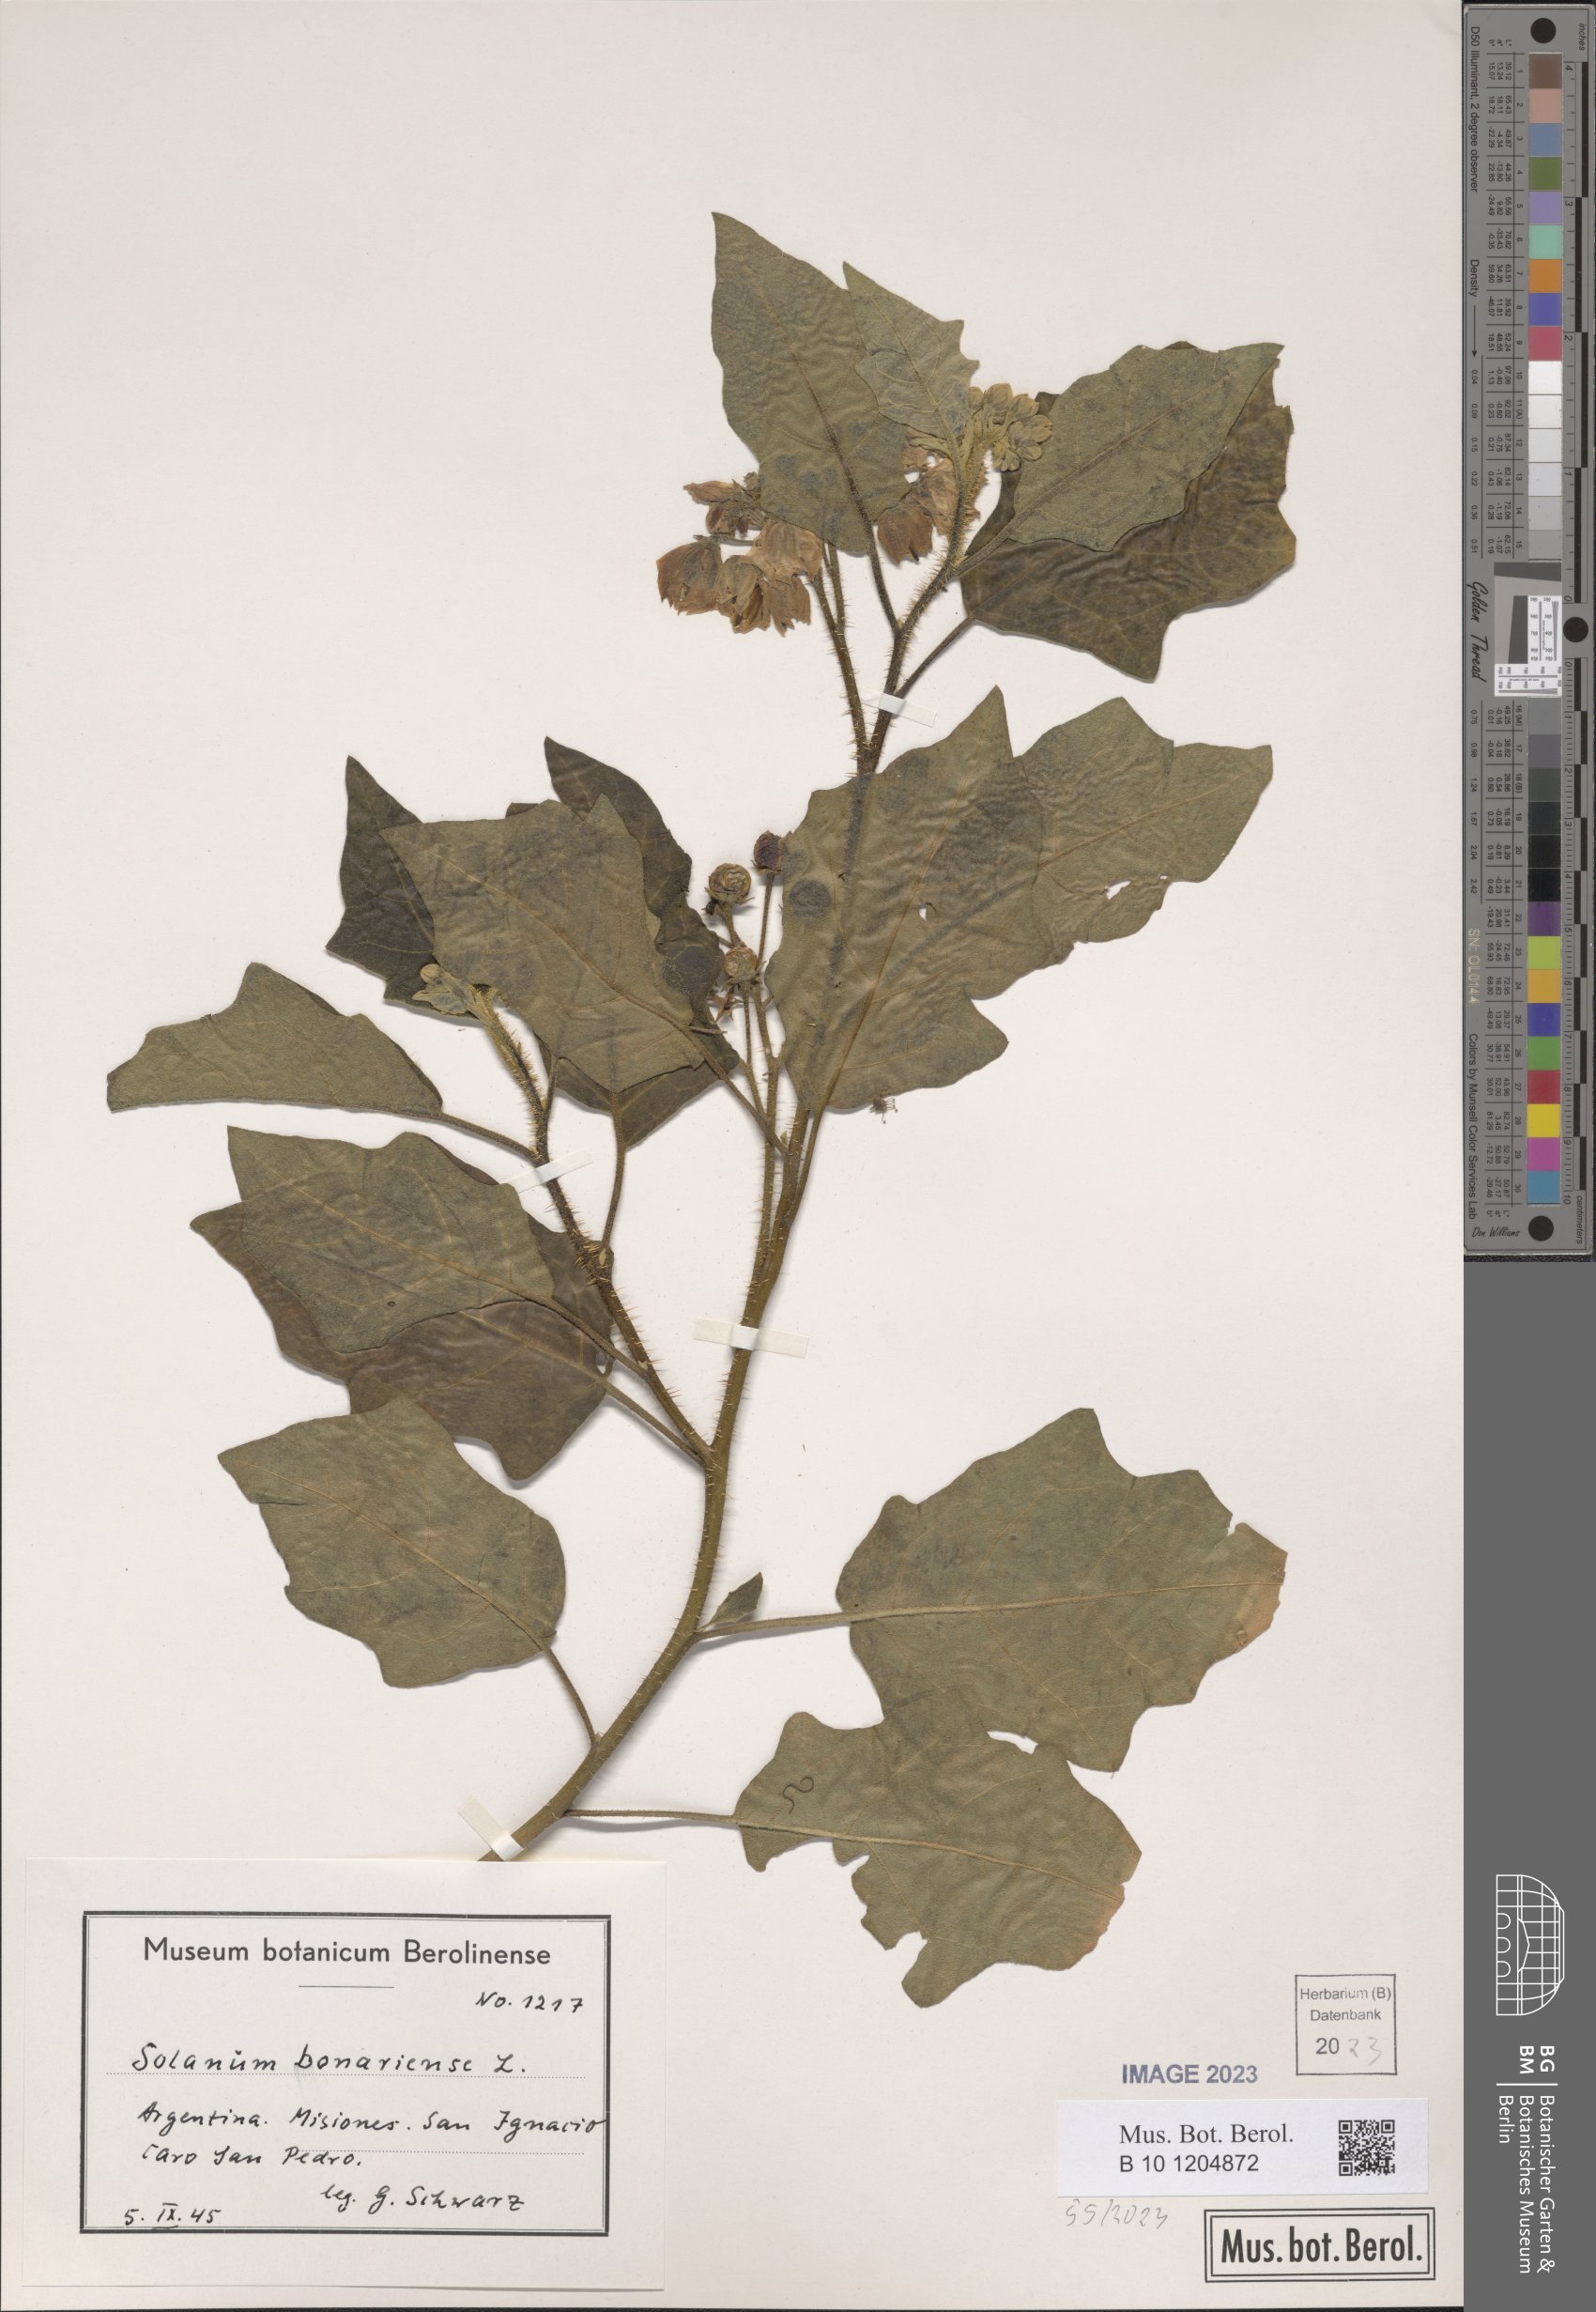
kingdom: Plantae
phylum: Tracheophyta
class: Magnoliopsida
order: Solanales
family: Solanaceae
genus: Solanum
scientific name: Solanum bonariense
